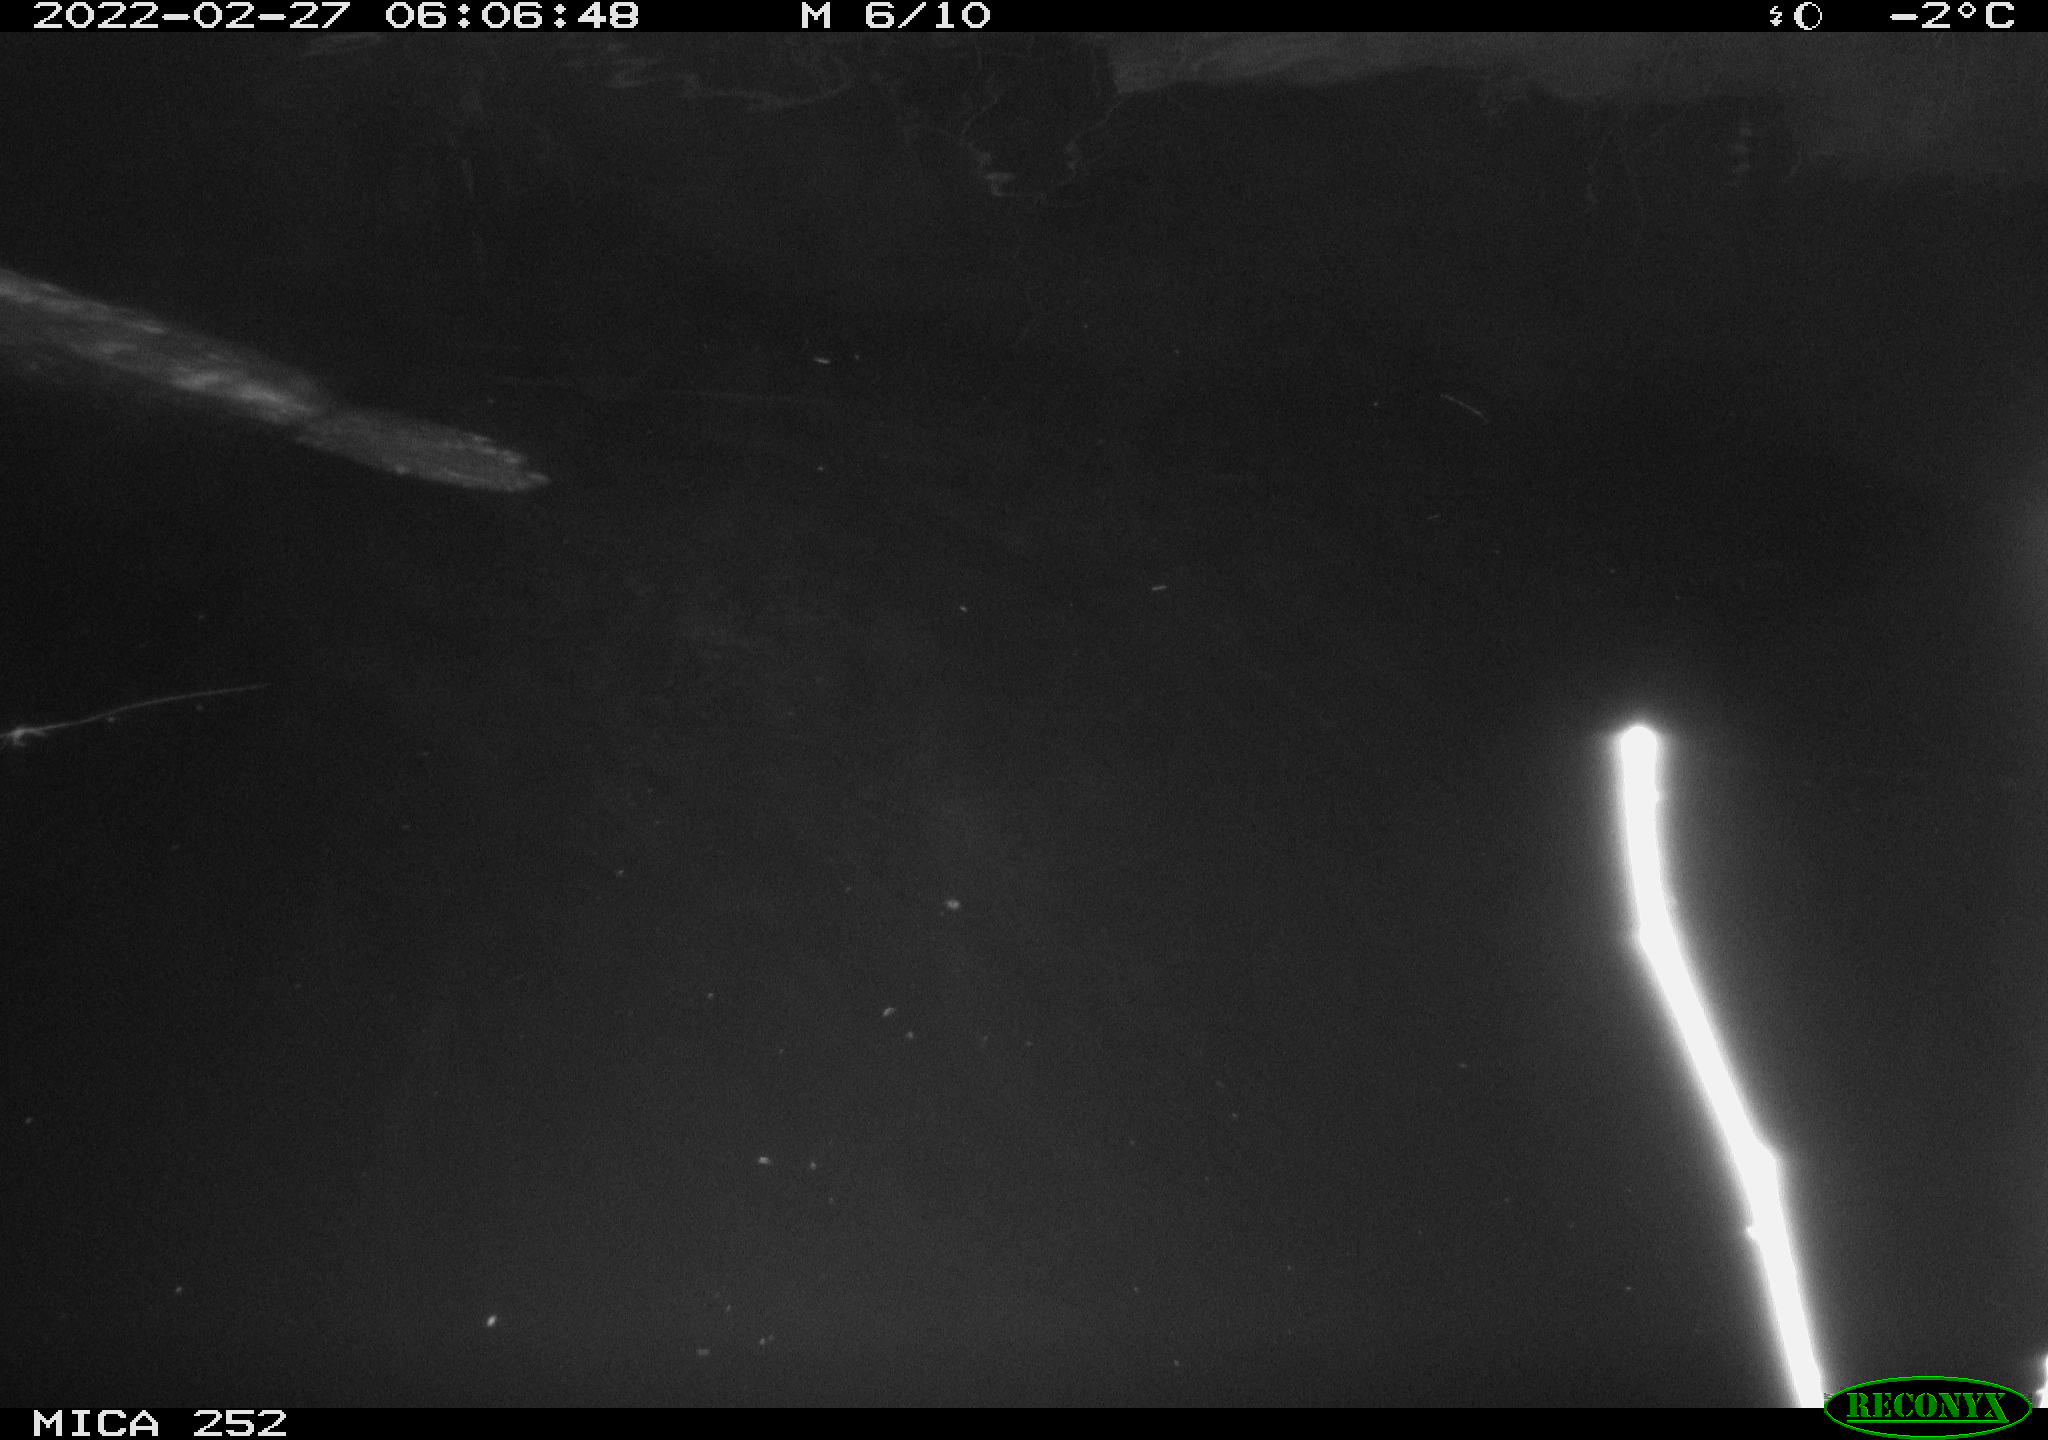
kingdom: Animalia
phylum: Chordata
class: Mammalia
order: Rodentia
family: Castoridae
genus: Castor
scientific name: Castor fiber
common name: Eurasian beaver
